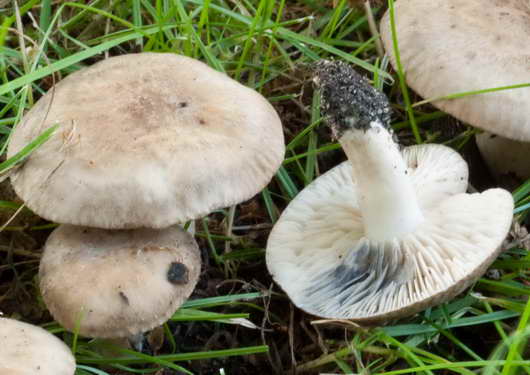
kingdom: Fungi
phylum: Basidiomycota
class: Agaricomycetes
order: Agaricales
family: Lyophyllaceae
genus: Lyophyllum
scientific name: Lyophyllum paelochroum
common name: blånende gråblad
